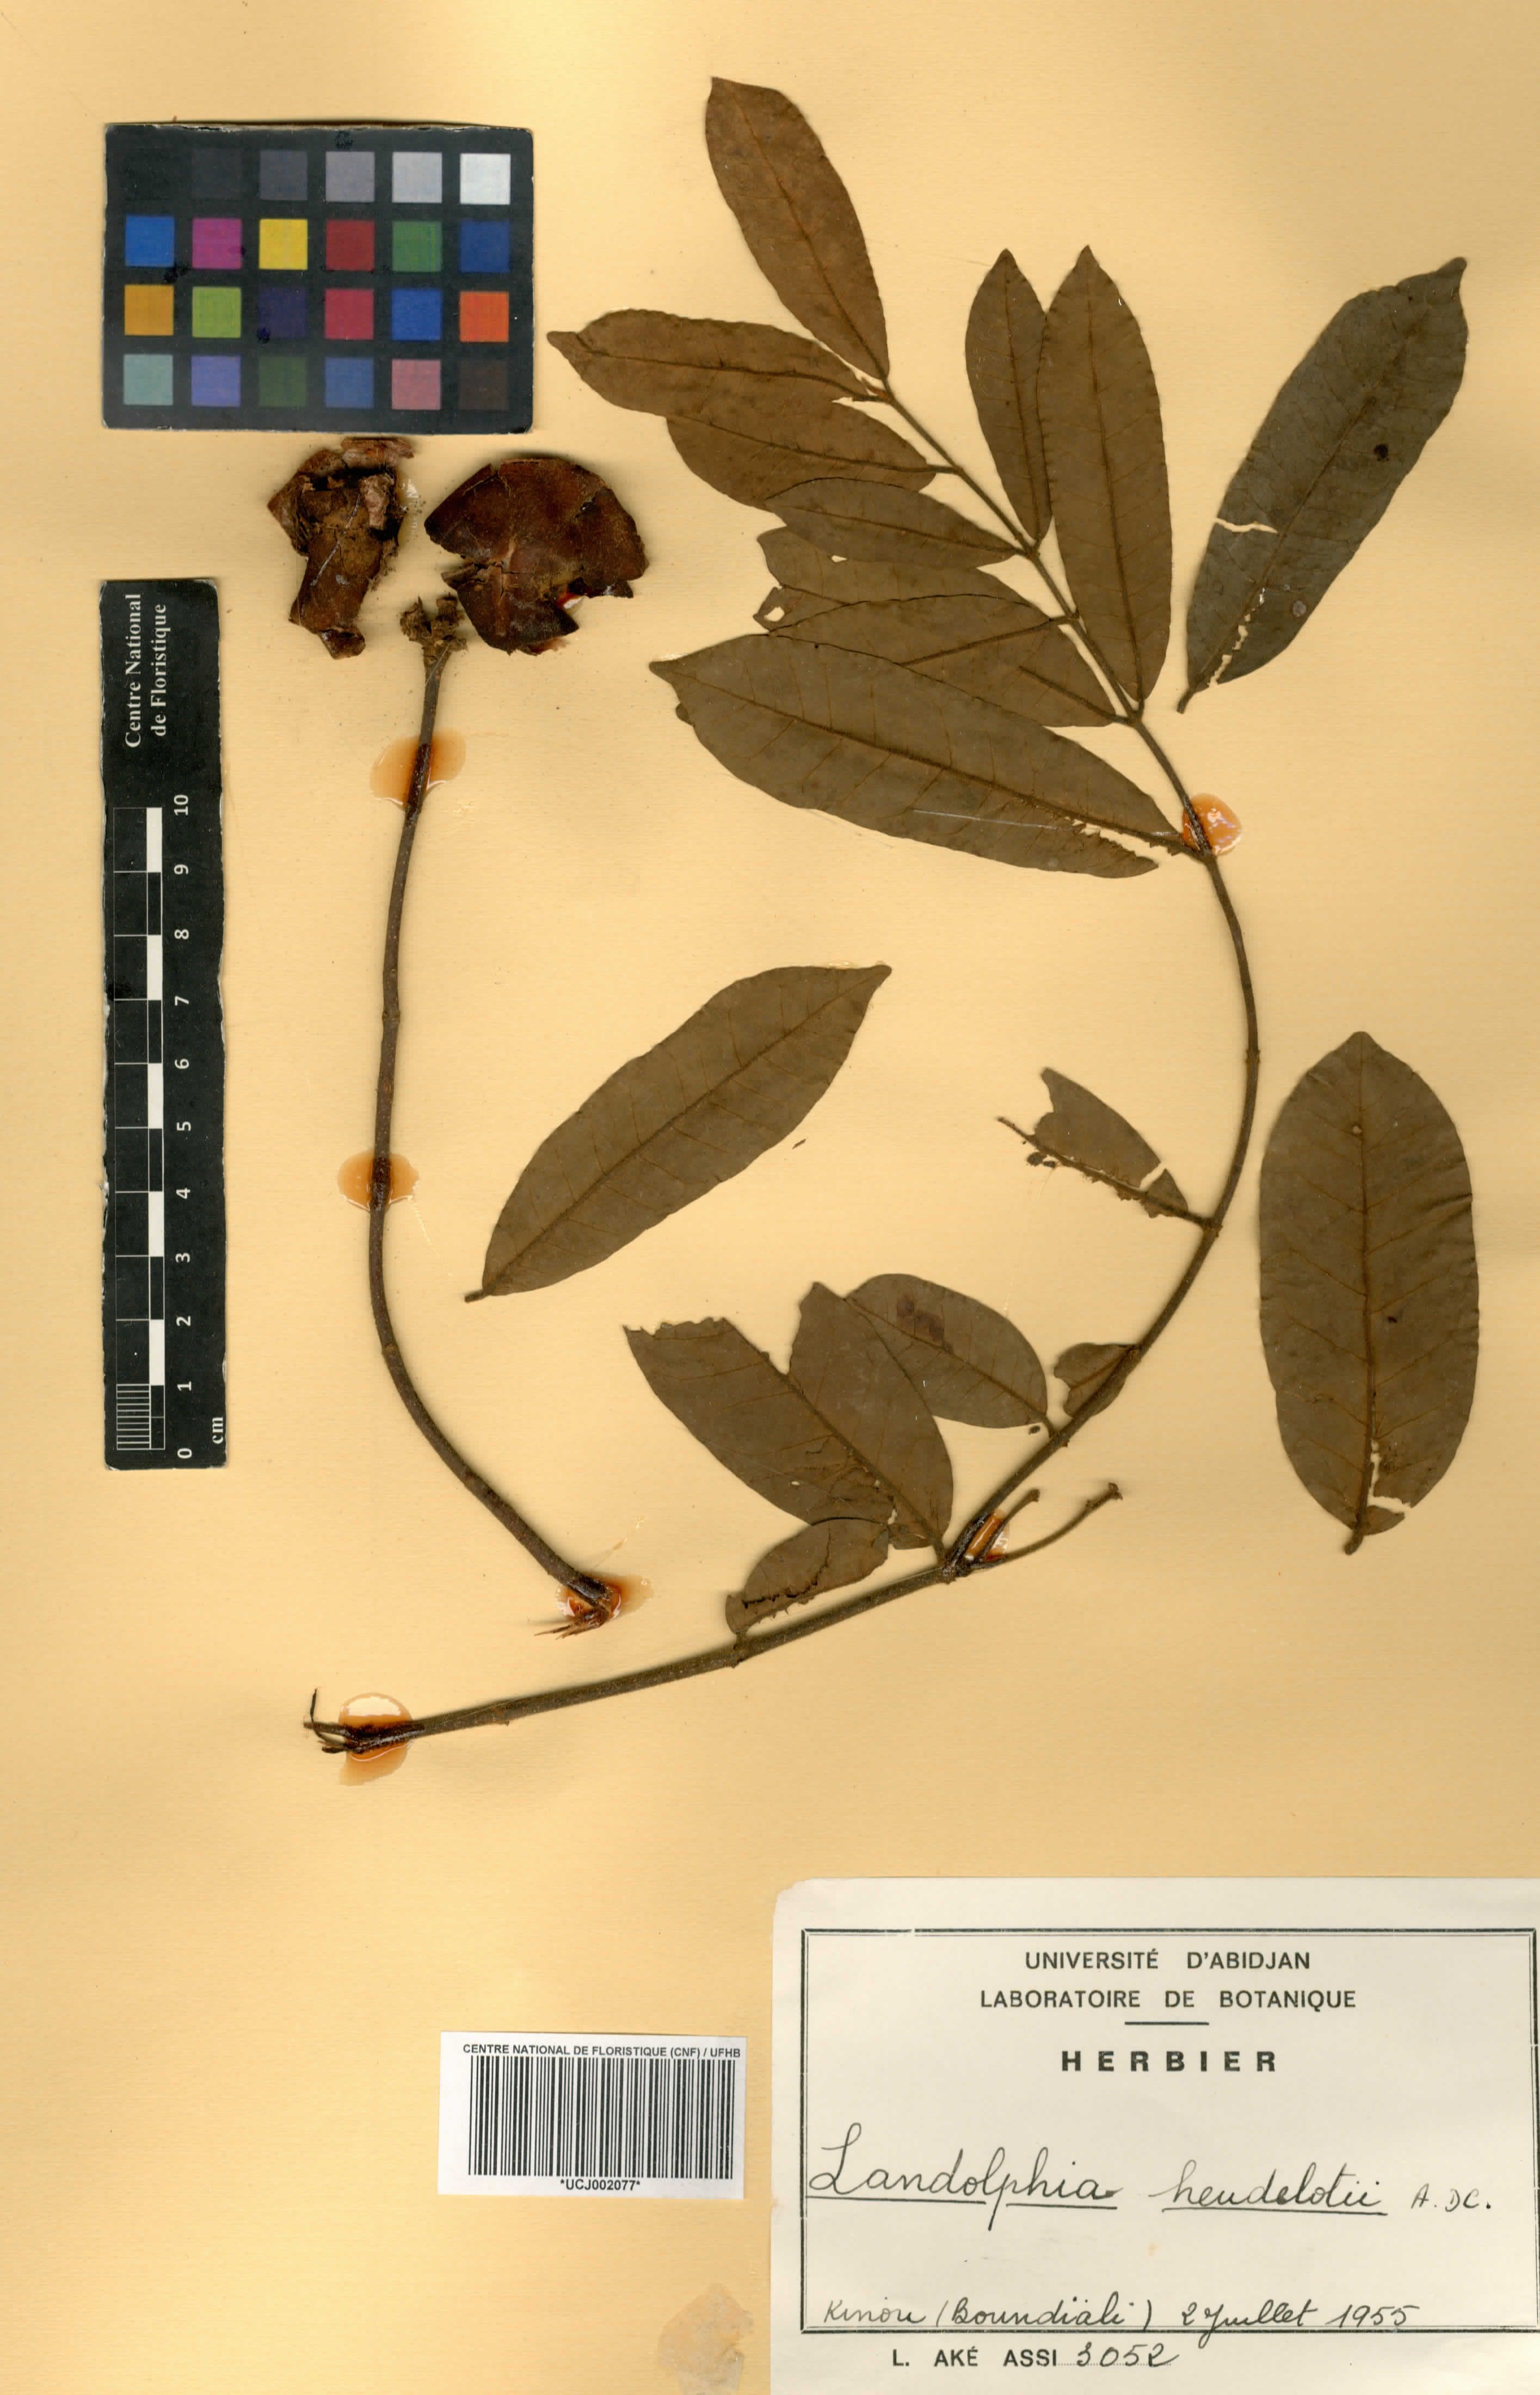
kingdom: Plantae
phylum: Tracheophyta
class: Magnoliopsida
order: Gentianales
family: Apocynaceae
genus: Landolphia
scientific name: Landolphia heudelotii
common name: Landolphia-rubber
